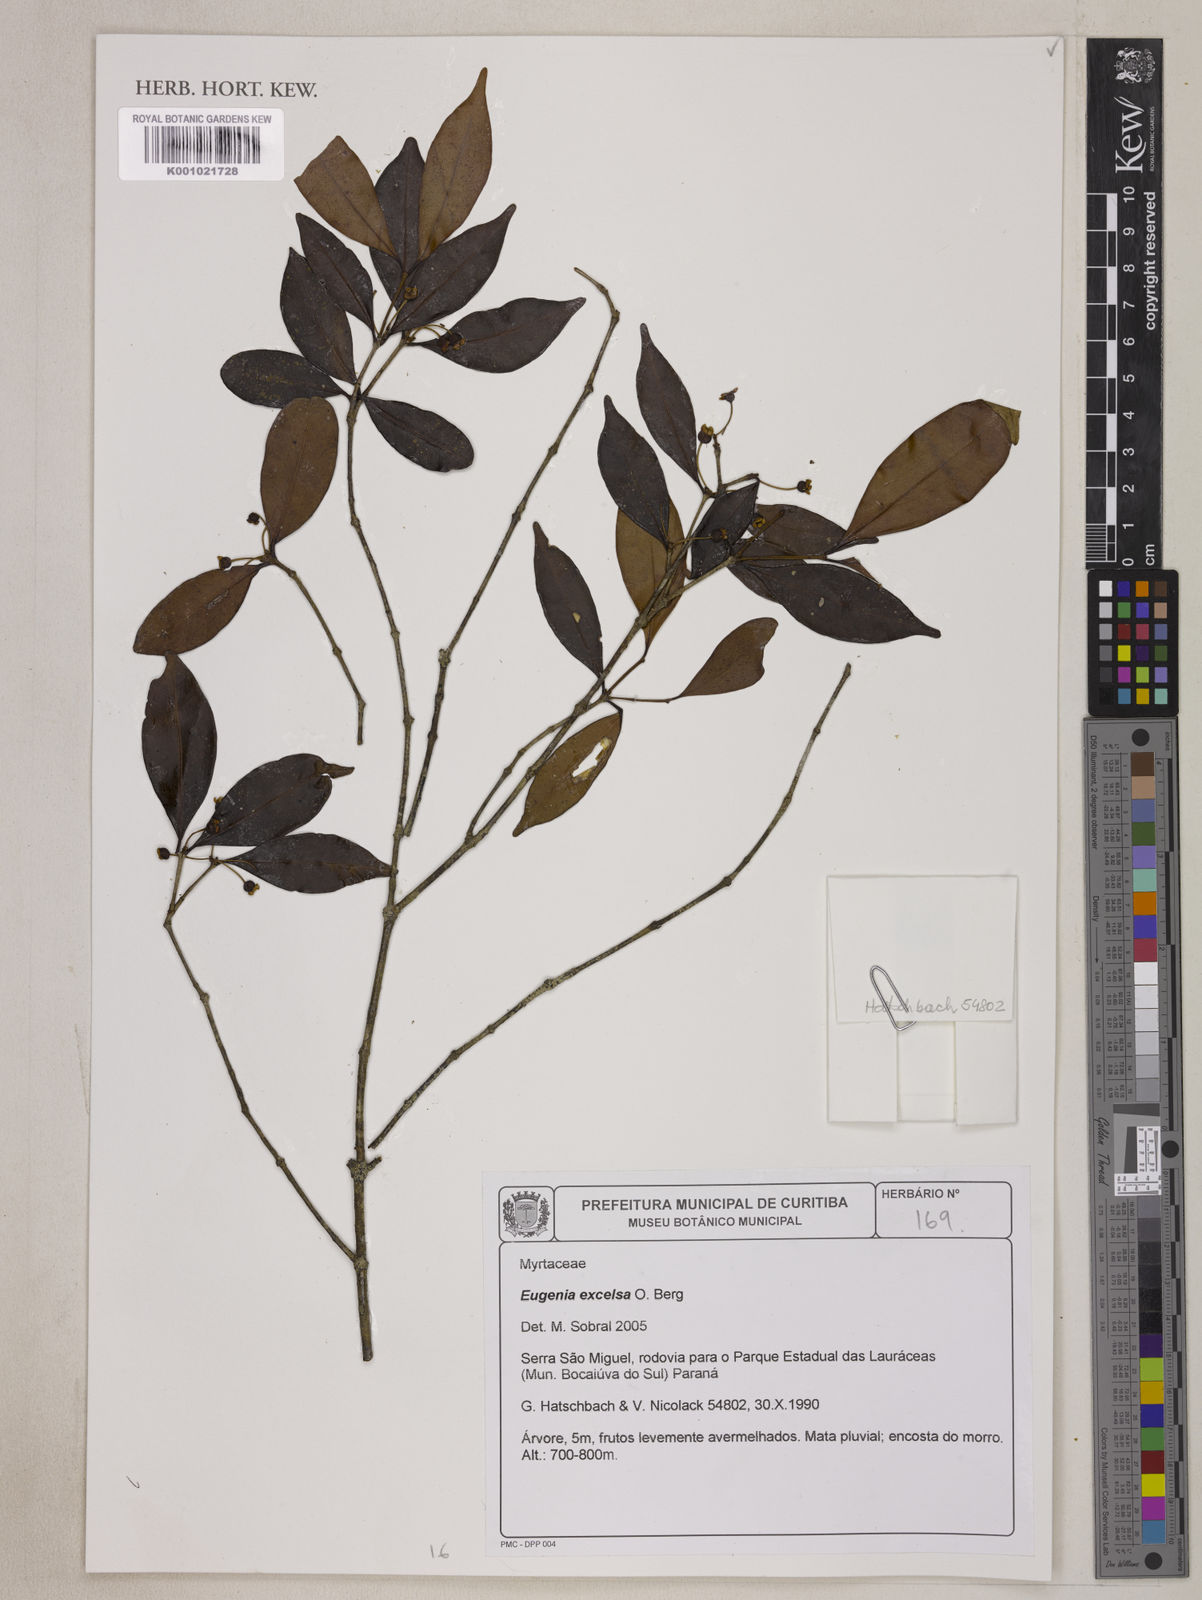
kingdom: Plantae
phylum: Tracheophyta
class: Magnoliopsida
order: Myrtales
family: Myrtaceae
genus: Eugenia
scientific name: Eugenia excelsa
